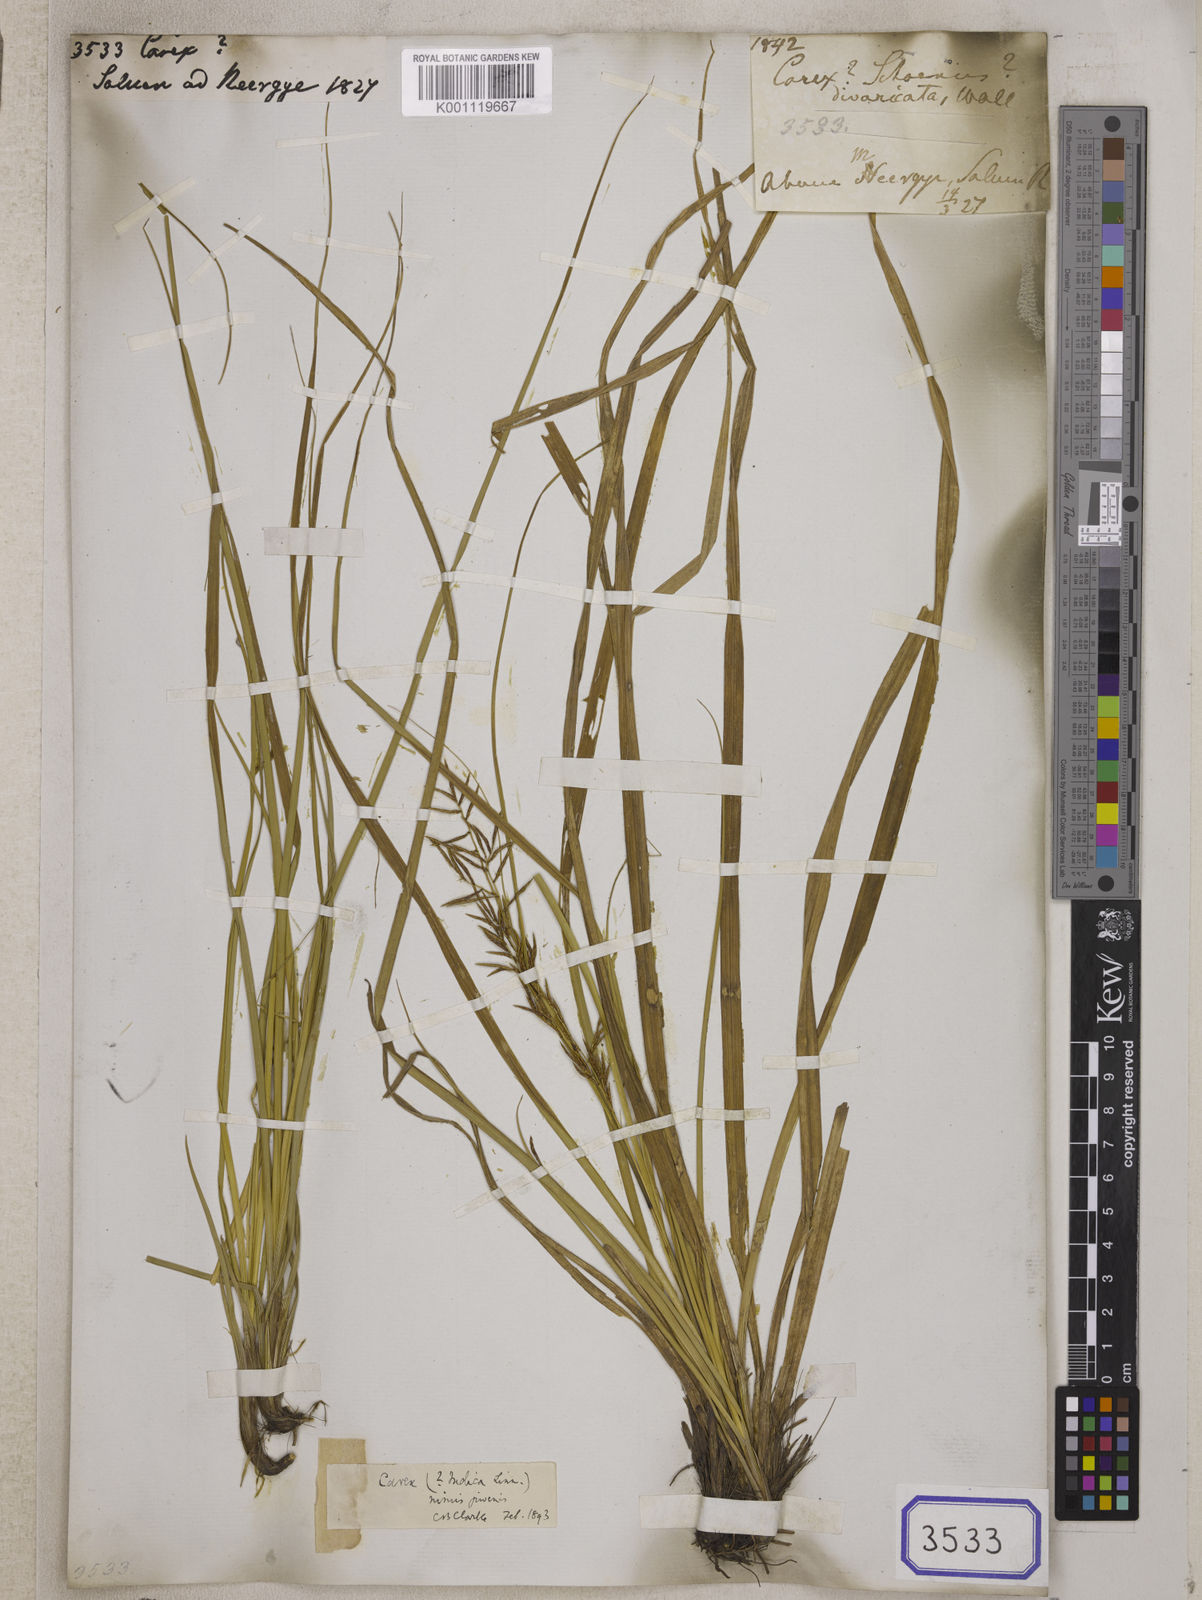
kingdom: Plantae
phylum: Tracheophyta
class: Liliopsida
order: Poales
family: Cyperaceae
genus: Carex
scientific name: Carex
